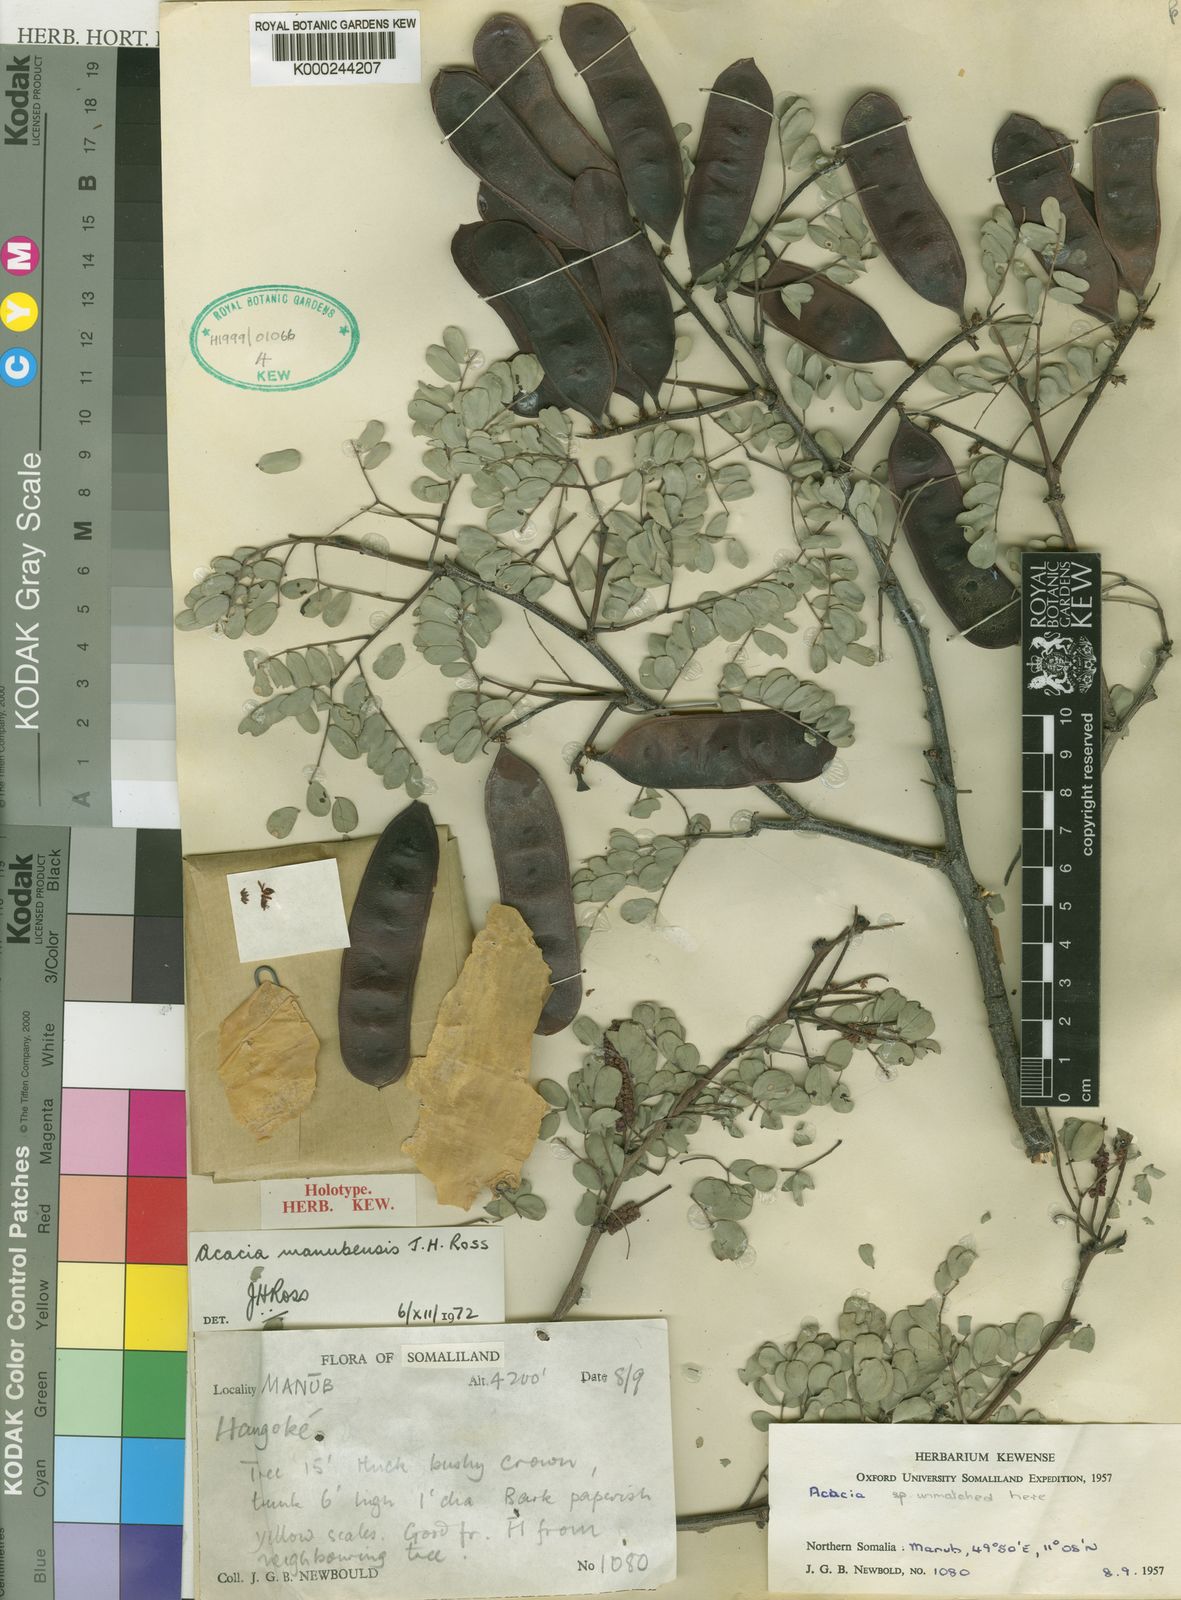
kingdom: Plantae
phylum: Tracheophyta
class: Magnoliopsida
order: Fabales
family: Fabaceae
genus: Senegalia
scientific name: Senegalia manubensis
